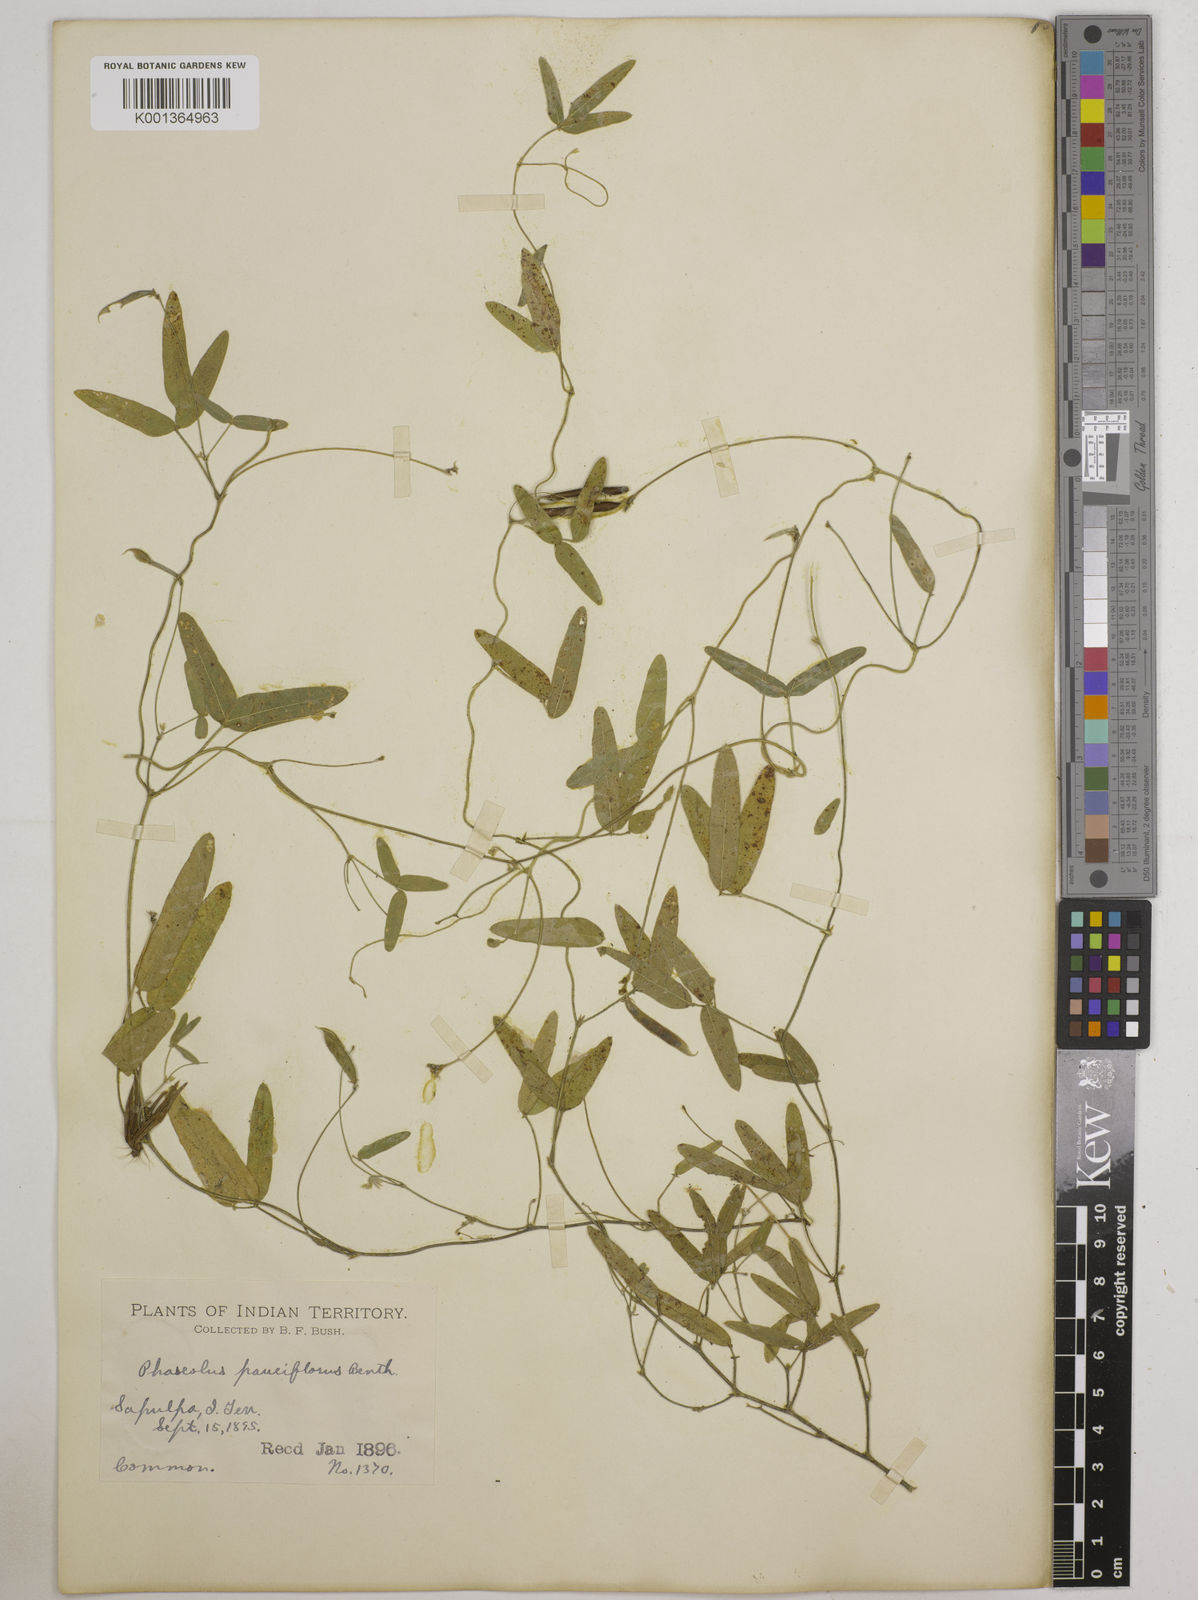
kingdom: Plantae
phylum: Tracheophyta
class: Magnoliopsida
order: Fabales
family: Fabaceae
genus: Strophostyles
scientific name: Strophostyles leiosperma
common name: Smooth-seed wild bean
